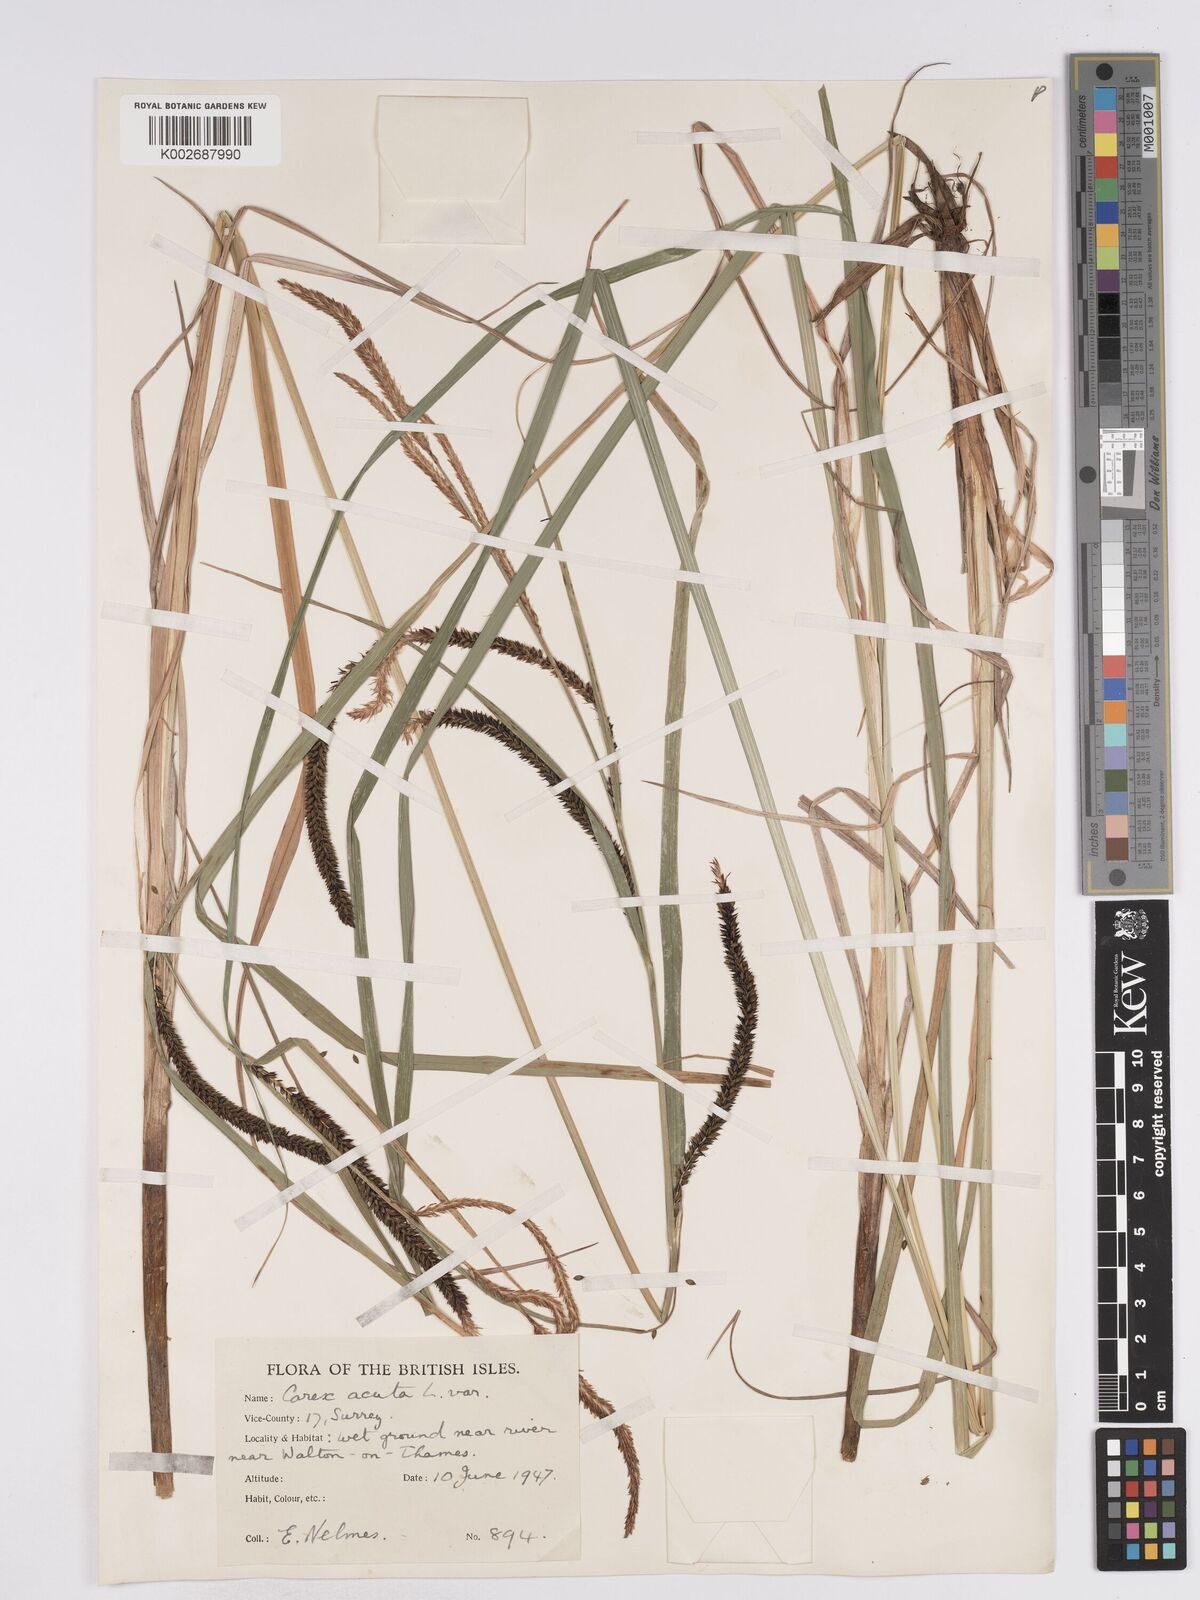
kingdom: Plantae
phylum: Tracheophyta
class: Liliopsida
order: Poales
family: Cyperaceae
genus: Carex
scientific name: Carex acuta
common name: Slender tufted-sedge
